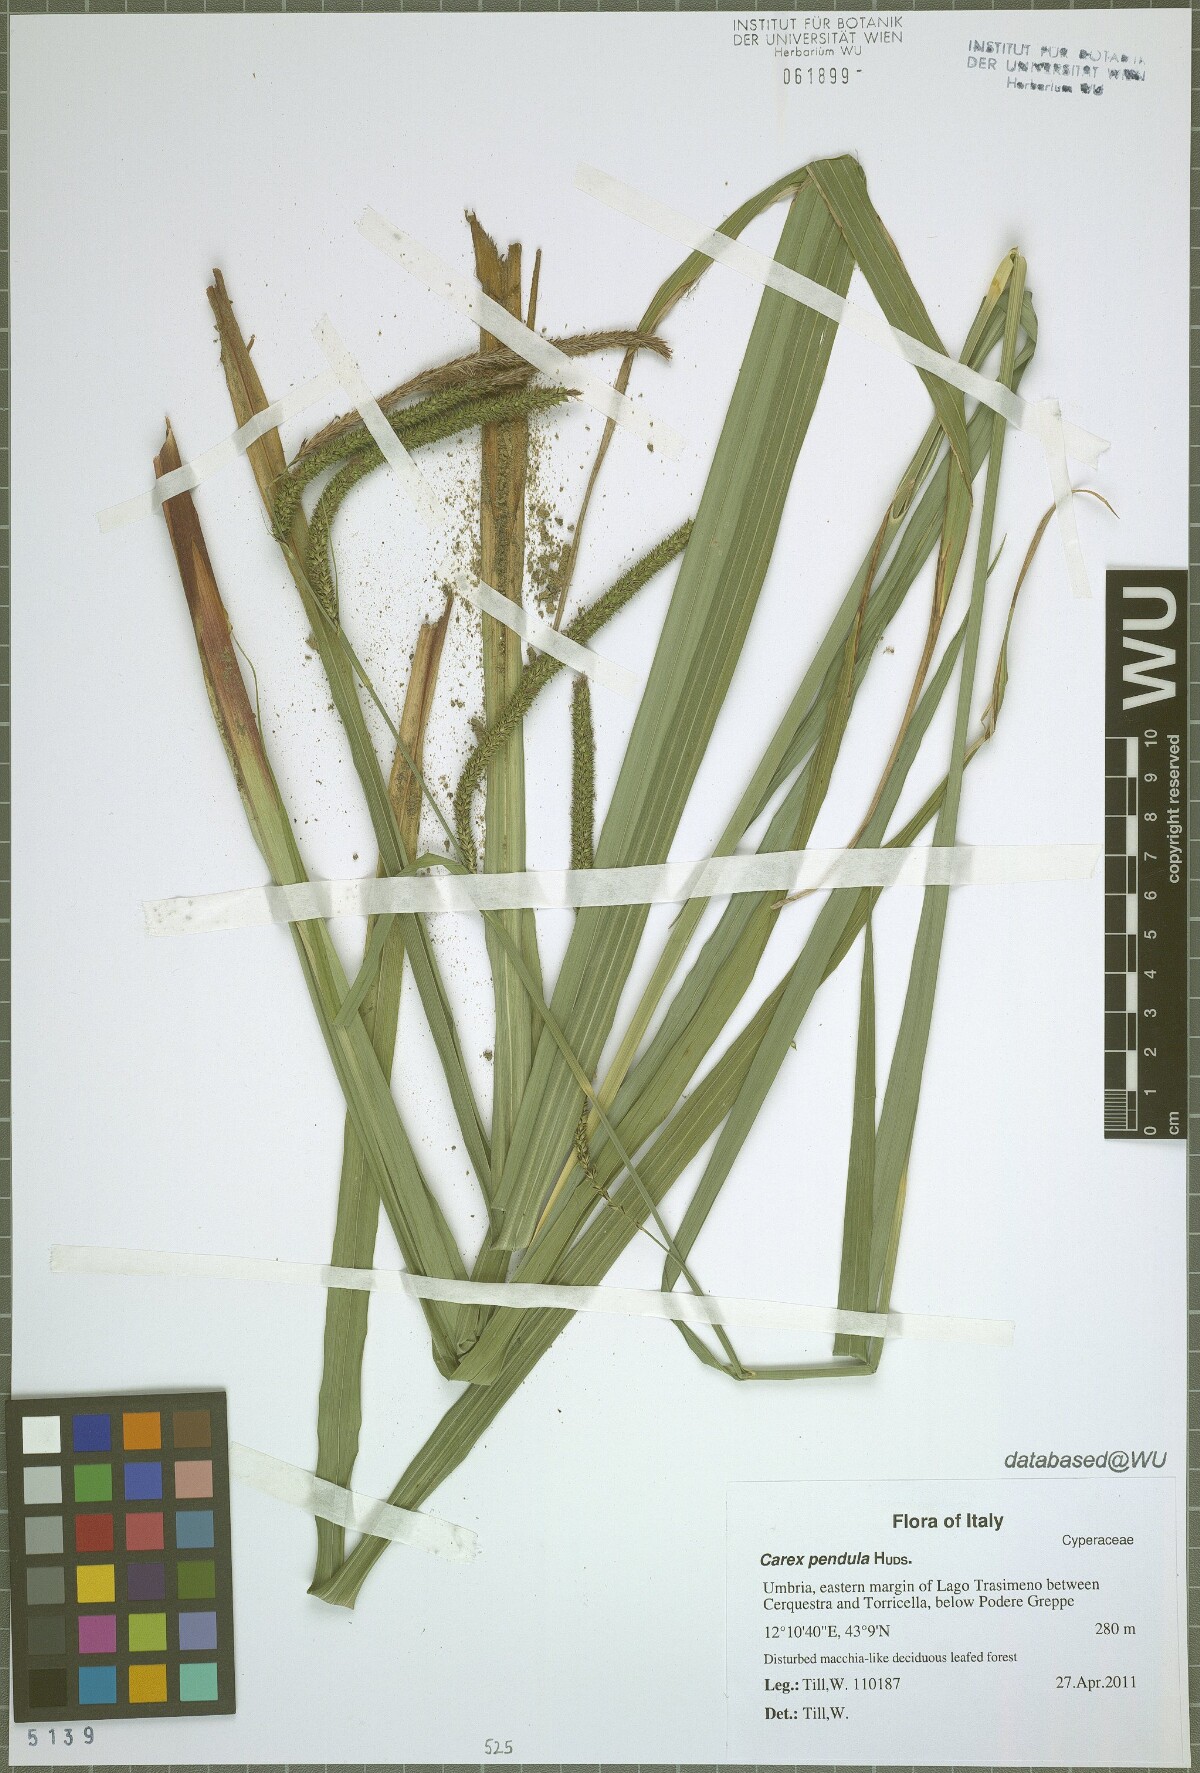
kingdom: Plantae
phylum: Tracheophyta
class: Liliopsida
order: Poales
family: Cyperaceae
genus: Carex
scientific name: Carex pendula
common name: Pendulous sedge
